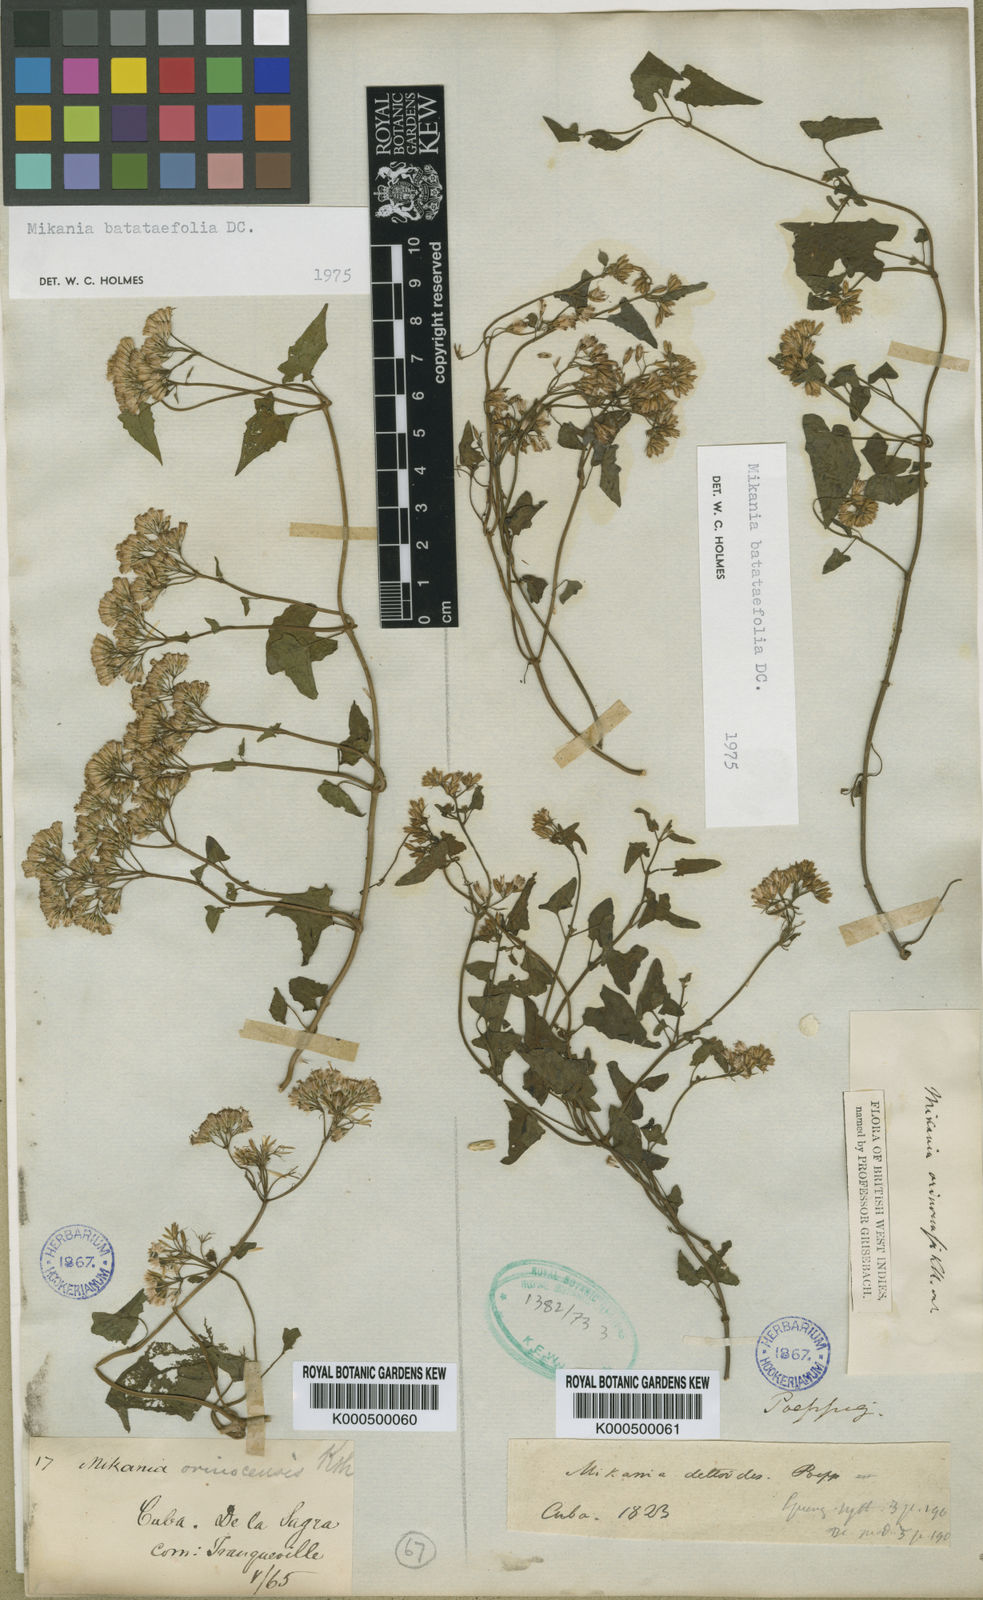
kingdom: Plantae
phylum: Tracheophyta
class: Magnoliopsida
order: Asterales
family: Asteraceae
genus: Mikania
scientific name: Mikania scandens
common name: Climbing hempvine
